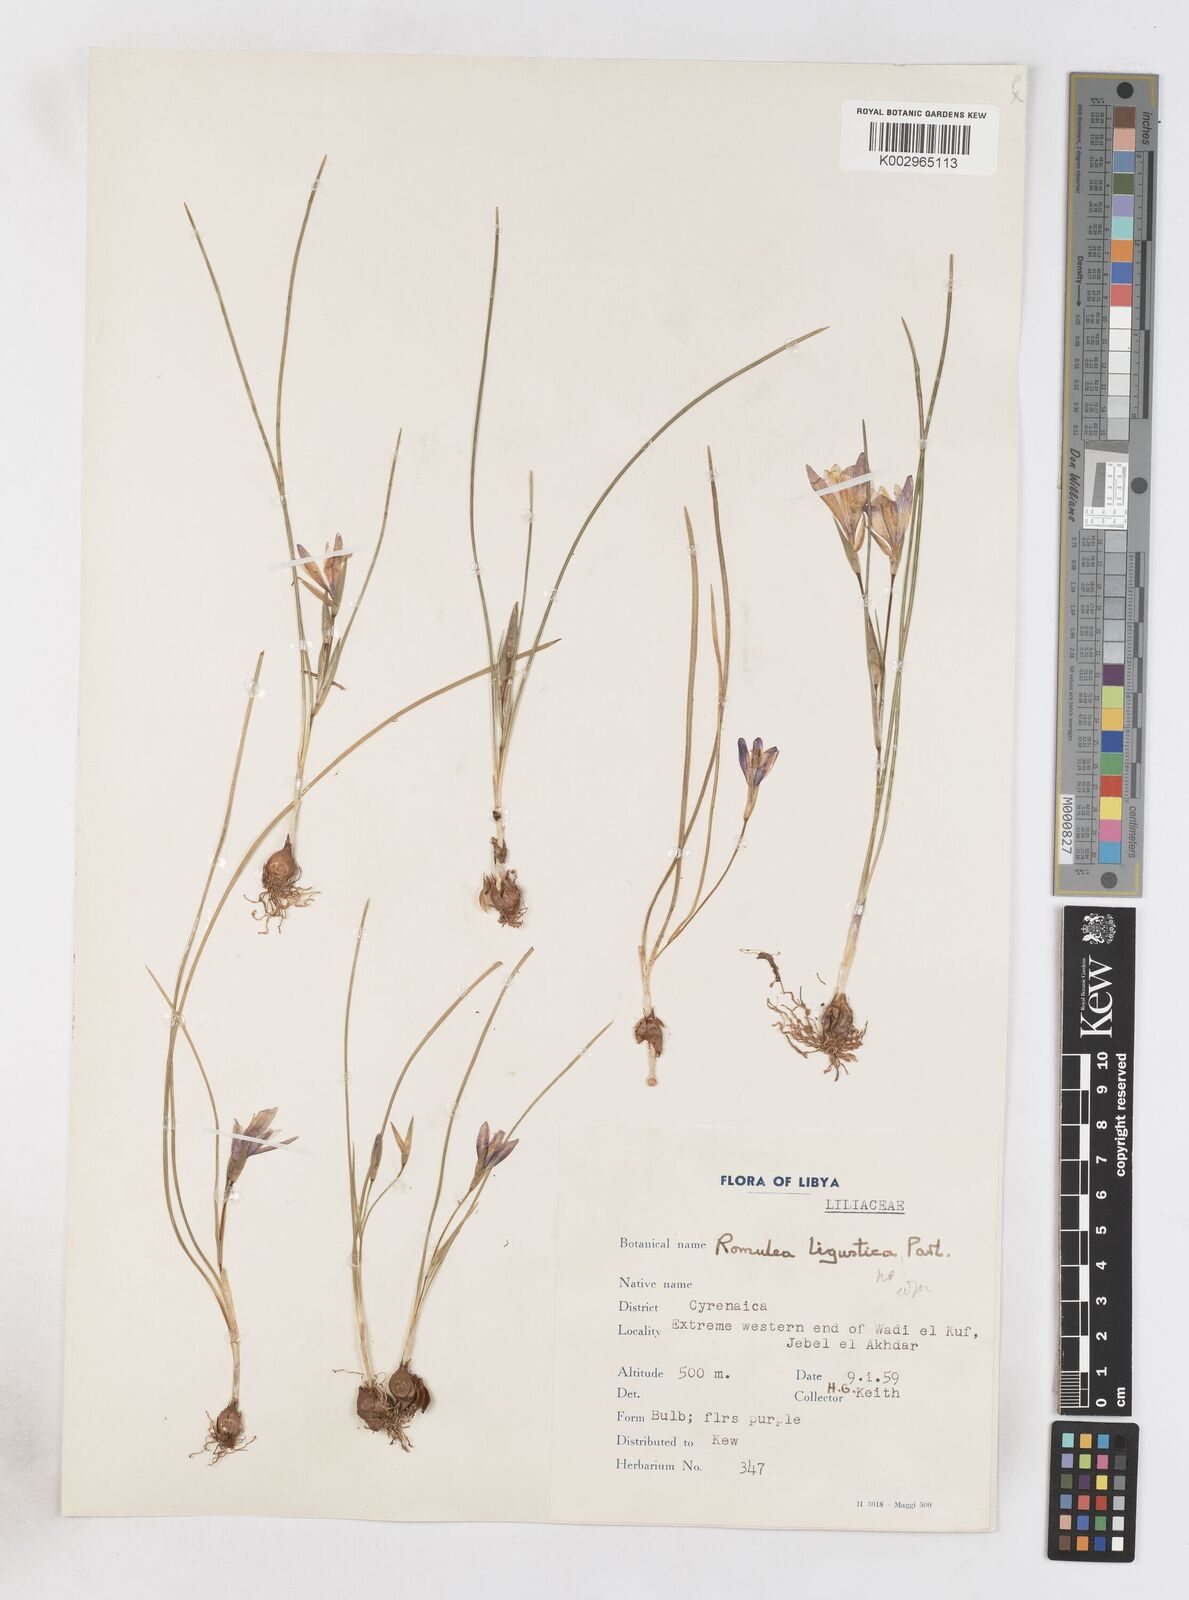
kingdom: Plantae
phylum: Tracheophyta
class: Liliopsida
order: Asparagales
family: Iridaceae
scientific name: Iridaceae
